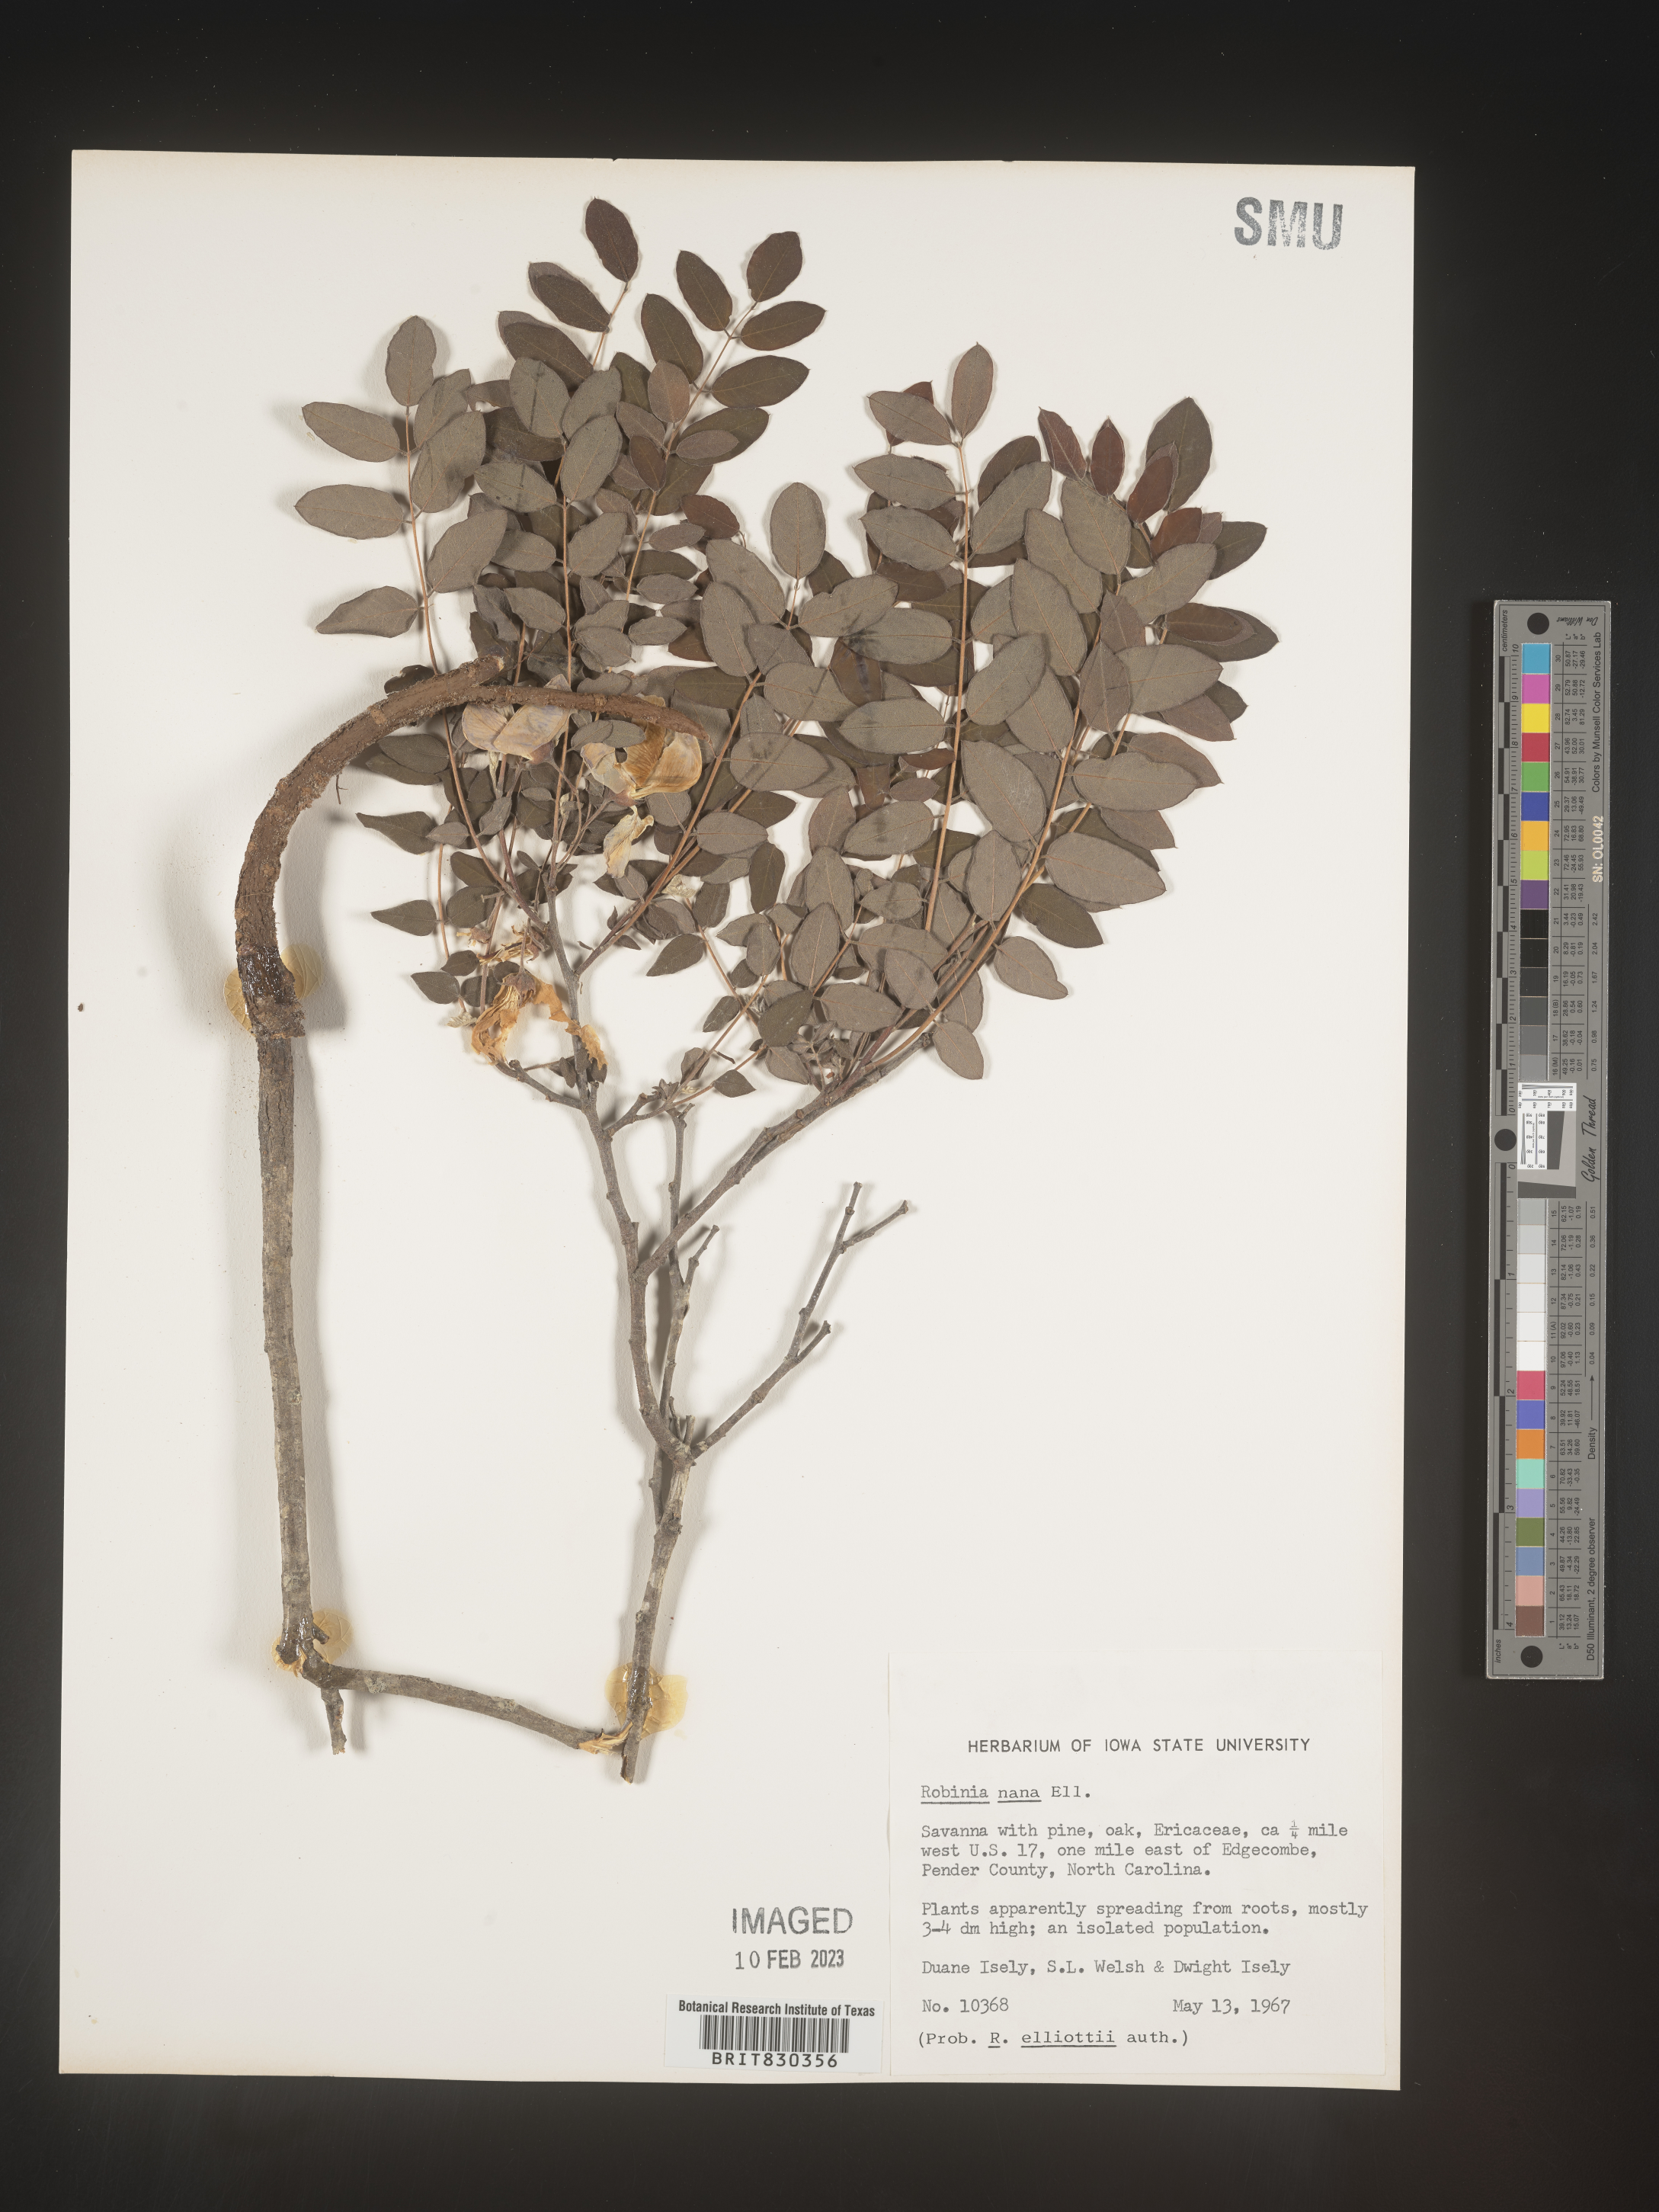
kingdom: Plantae
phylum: Tracheophyta
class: Magnoliopsida
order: Fabales
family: Fabaceae
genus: Robinia
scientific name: Robinia
